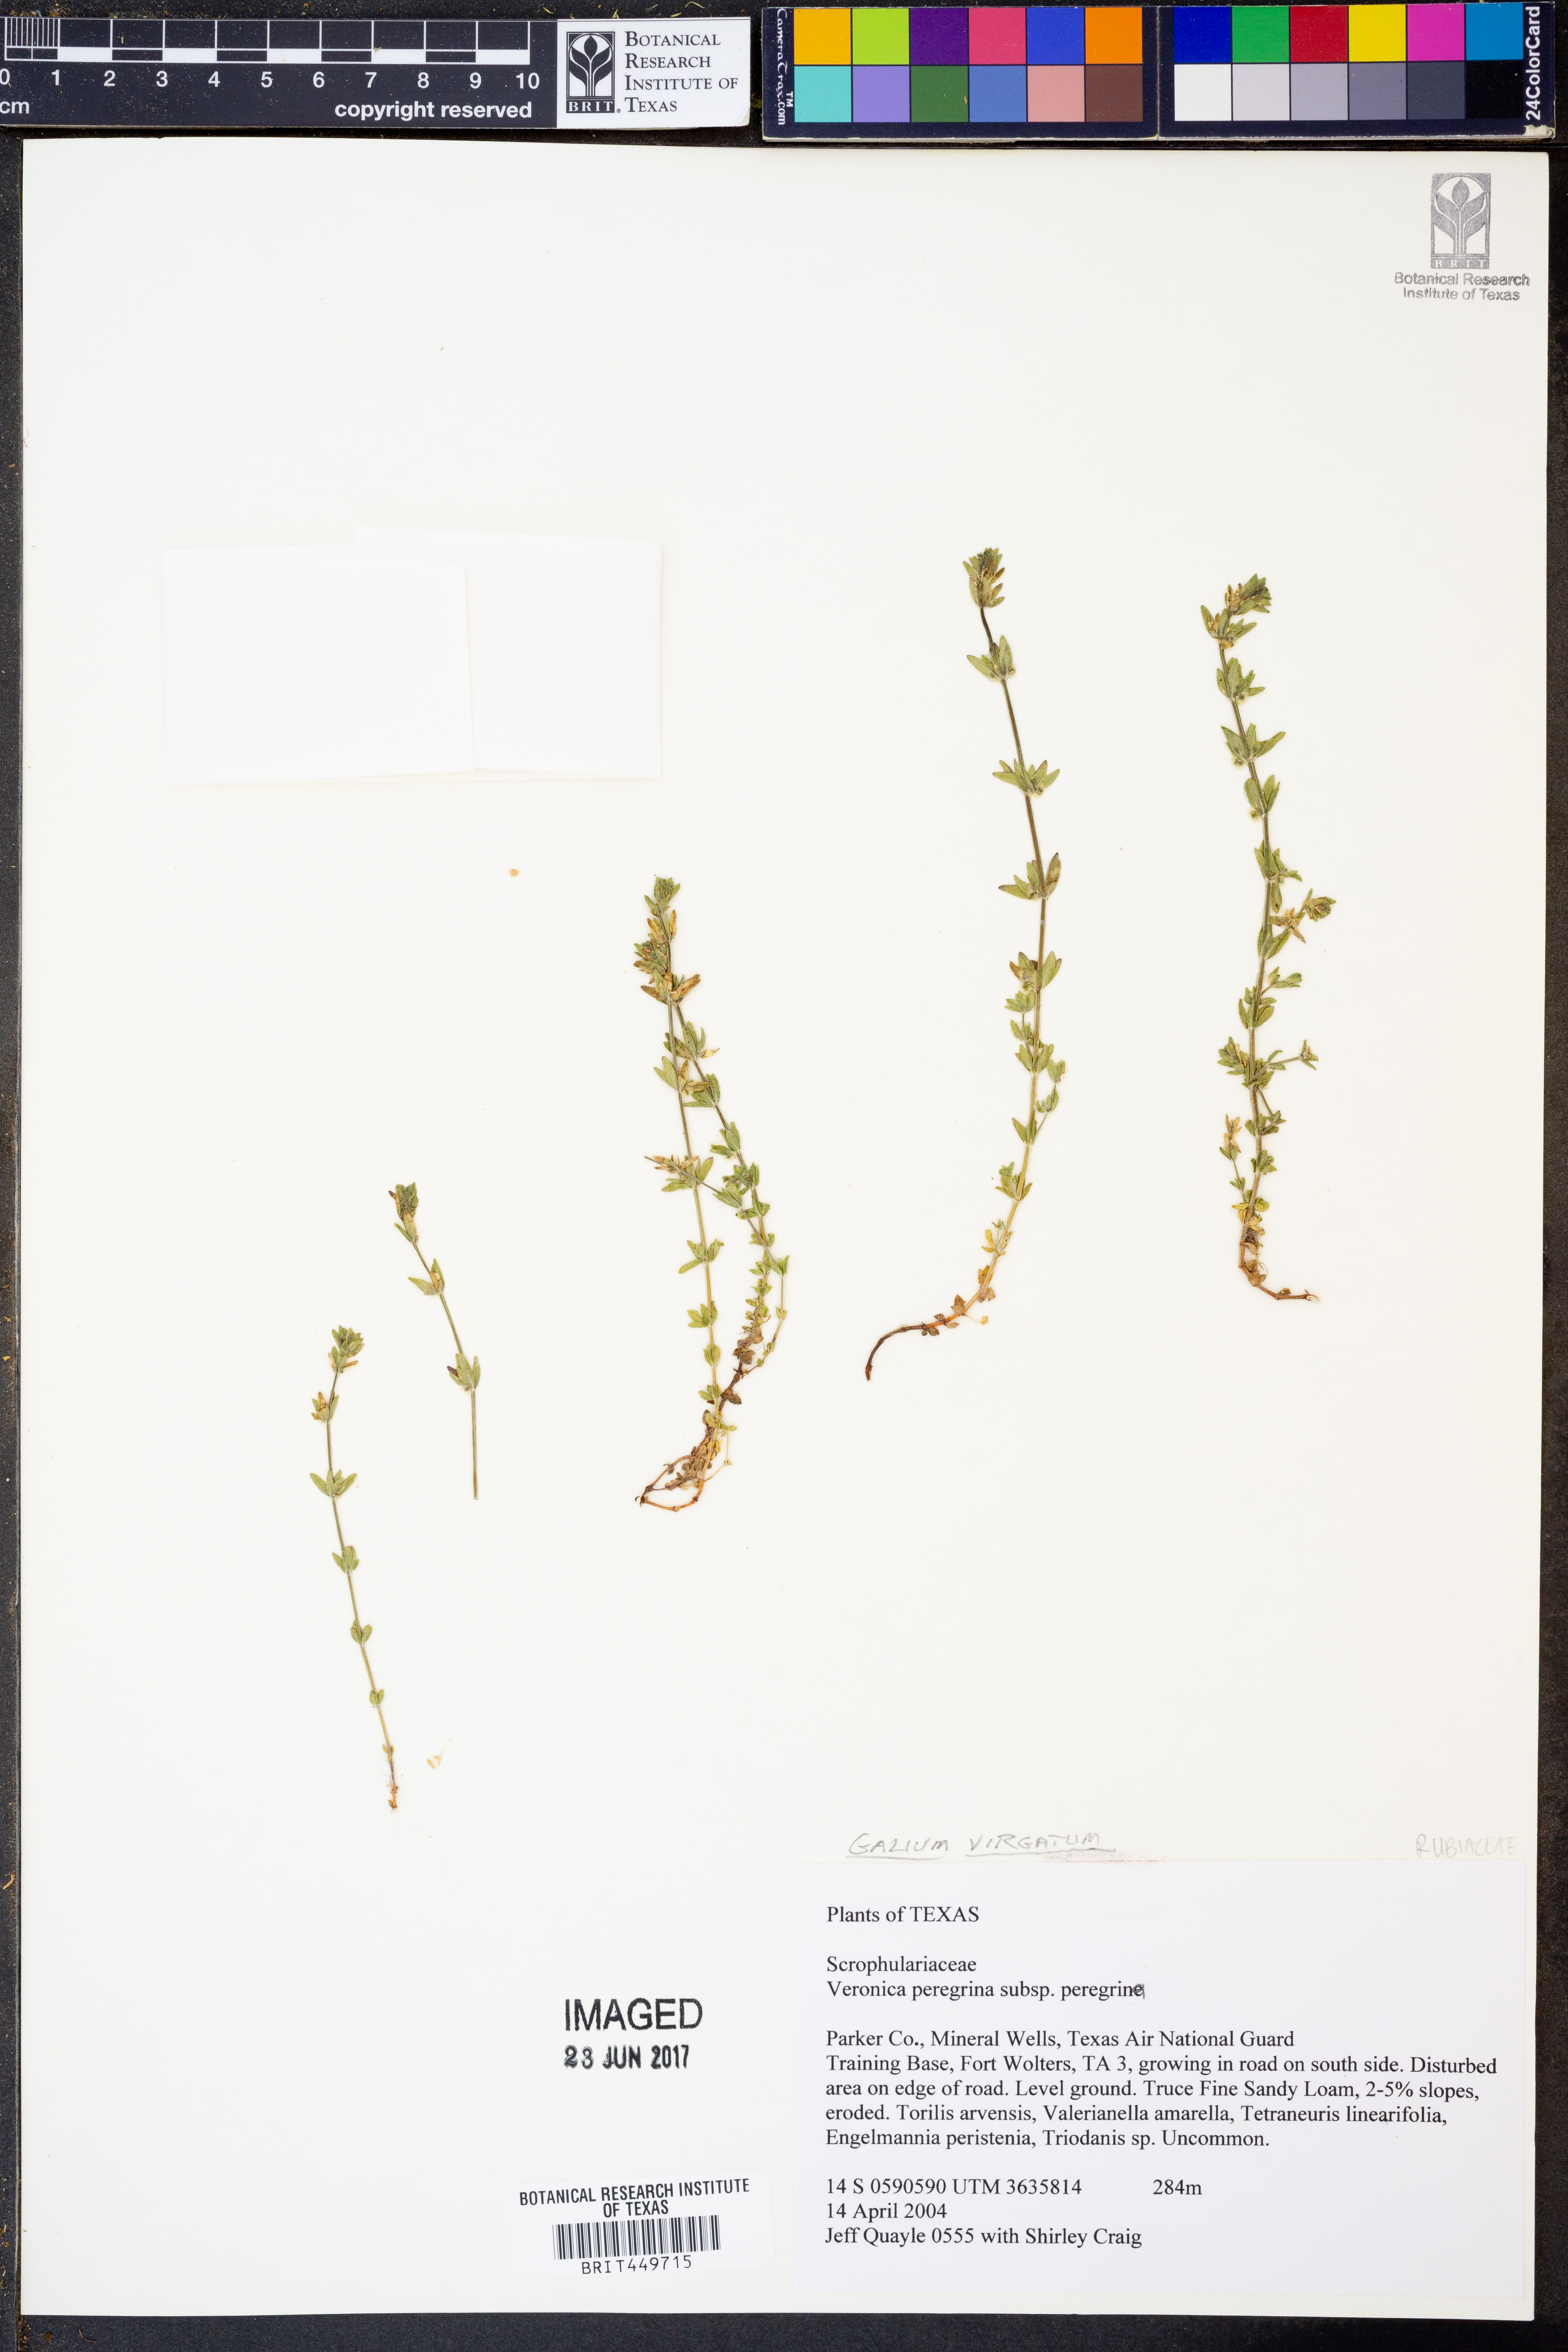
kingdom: Plantae
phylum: Tracheophyta
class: Magnoliopsida
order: Lamiales
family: Plantaginaceae
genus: Veronica
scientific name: Veronica peregrina
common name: Neckweed
